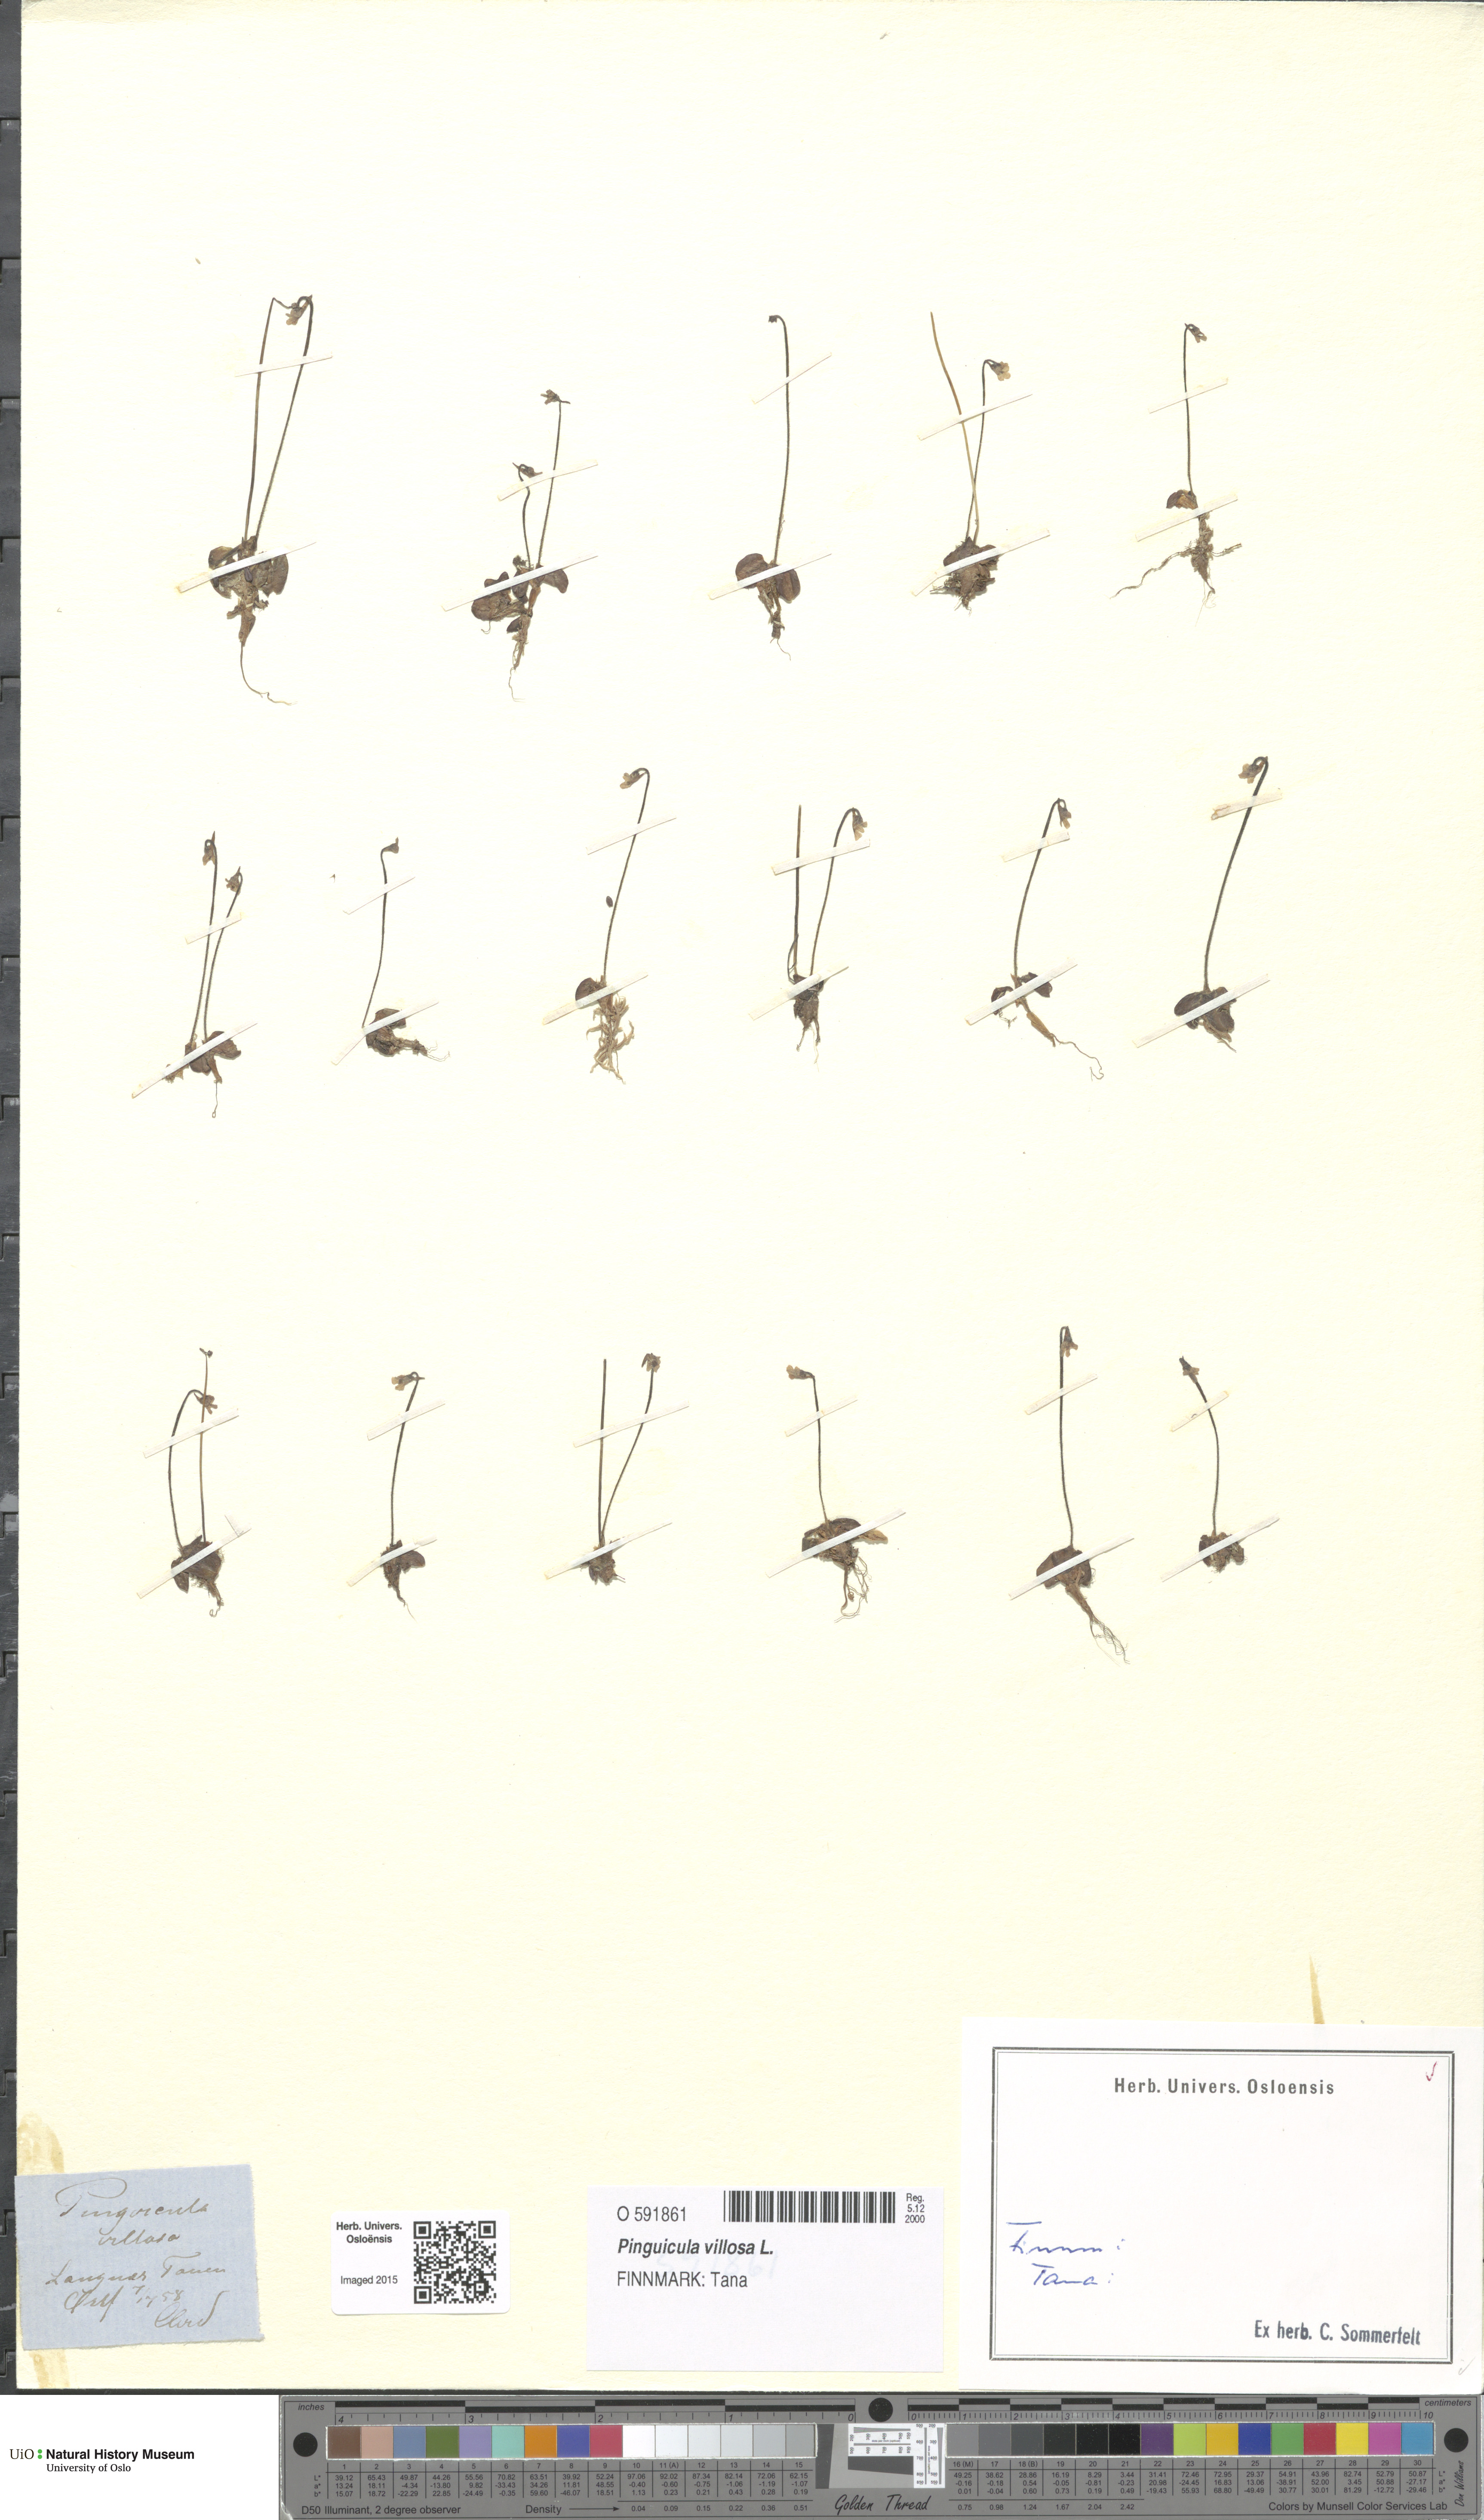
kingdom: Plantae
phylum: Tracheophyta
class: Magnoliopsida
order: Lamiales
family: Lentibulariaceae
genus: Pinguicula
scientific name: Pinguicula villosa
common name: Hairy butterwort
